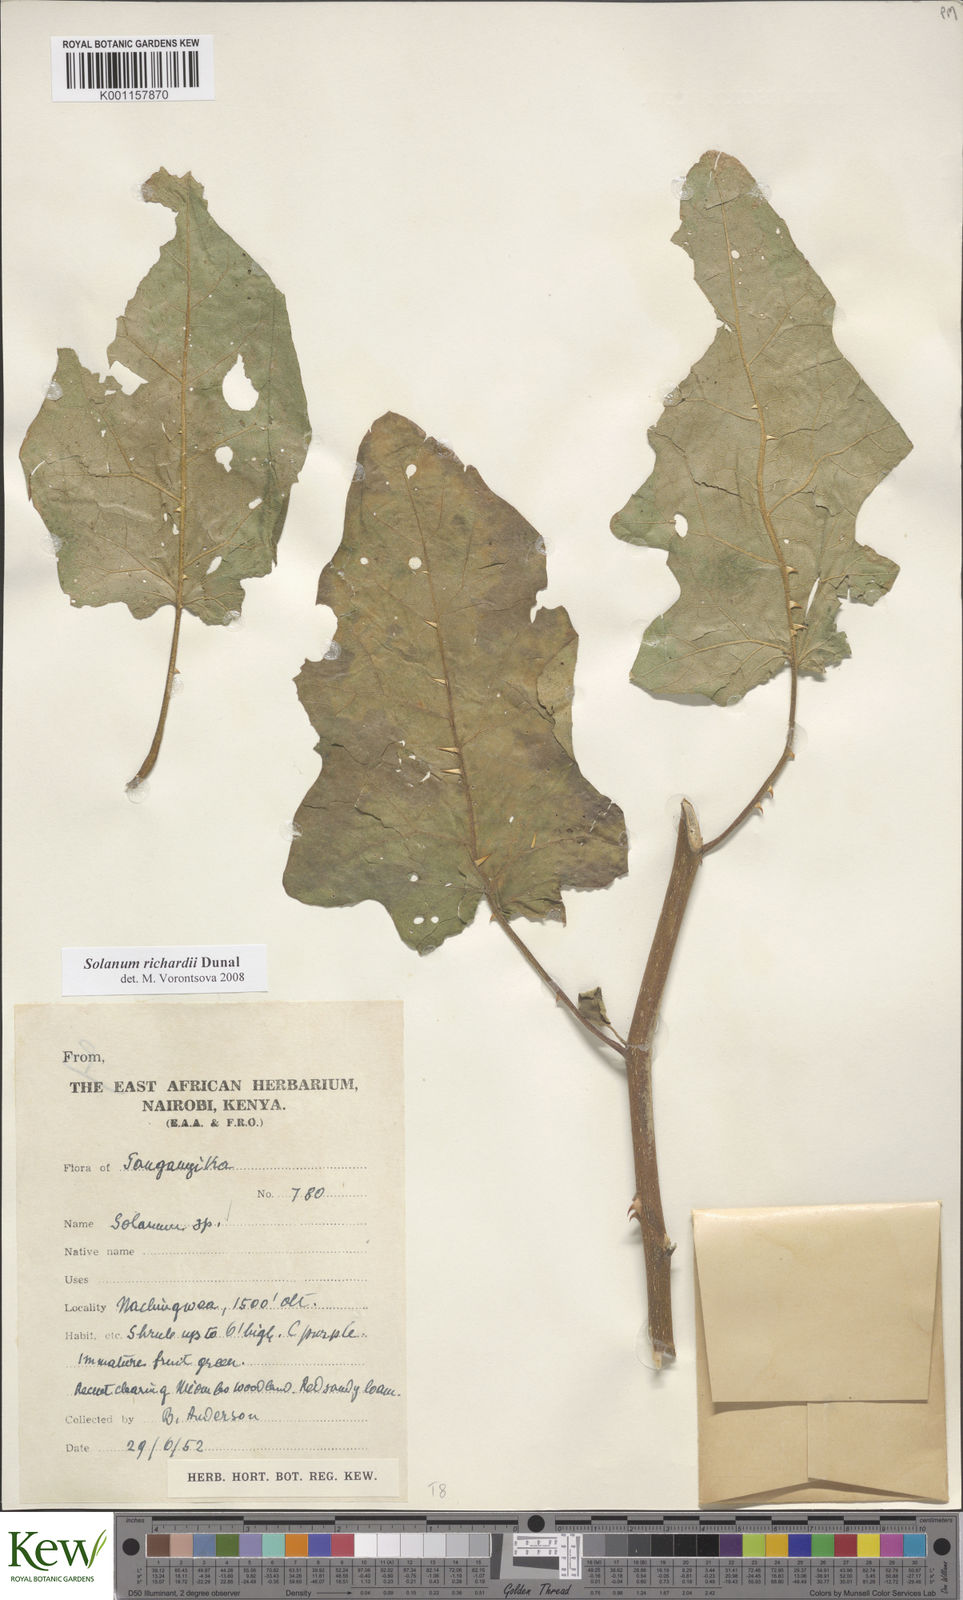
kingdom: Plantae
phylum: Tracheophyta
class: Magnoliopsida
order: Solanales
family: Solanaceae
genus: Solanum
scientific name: Solanum richardii
